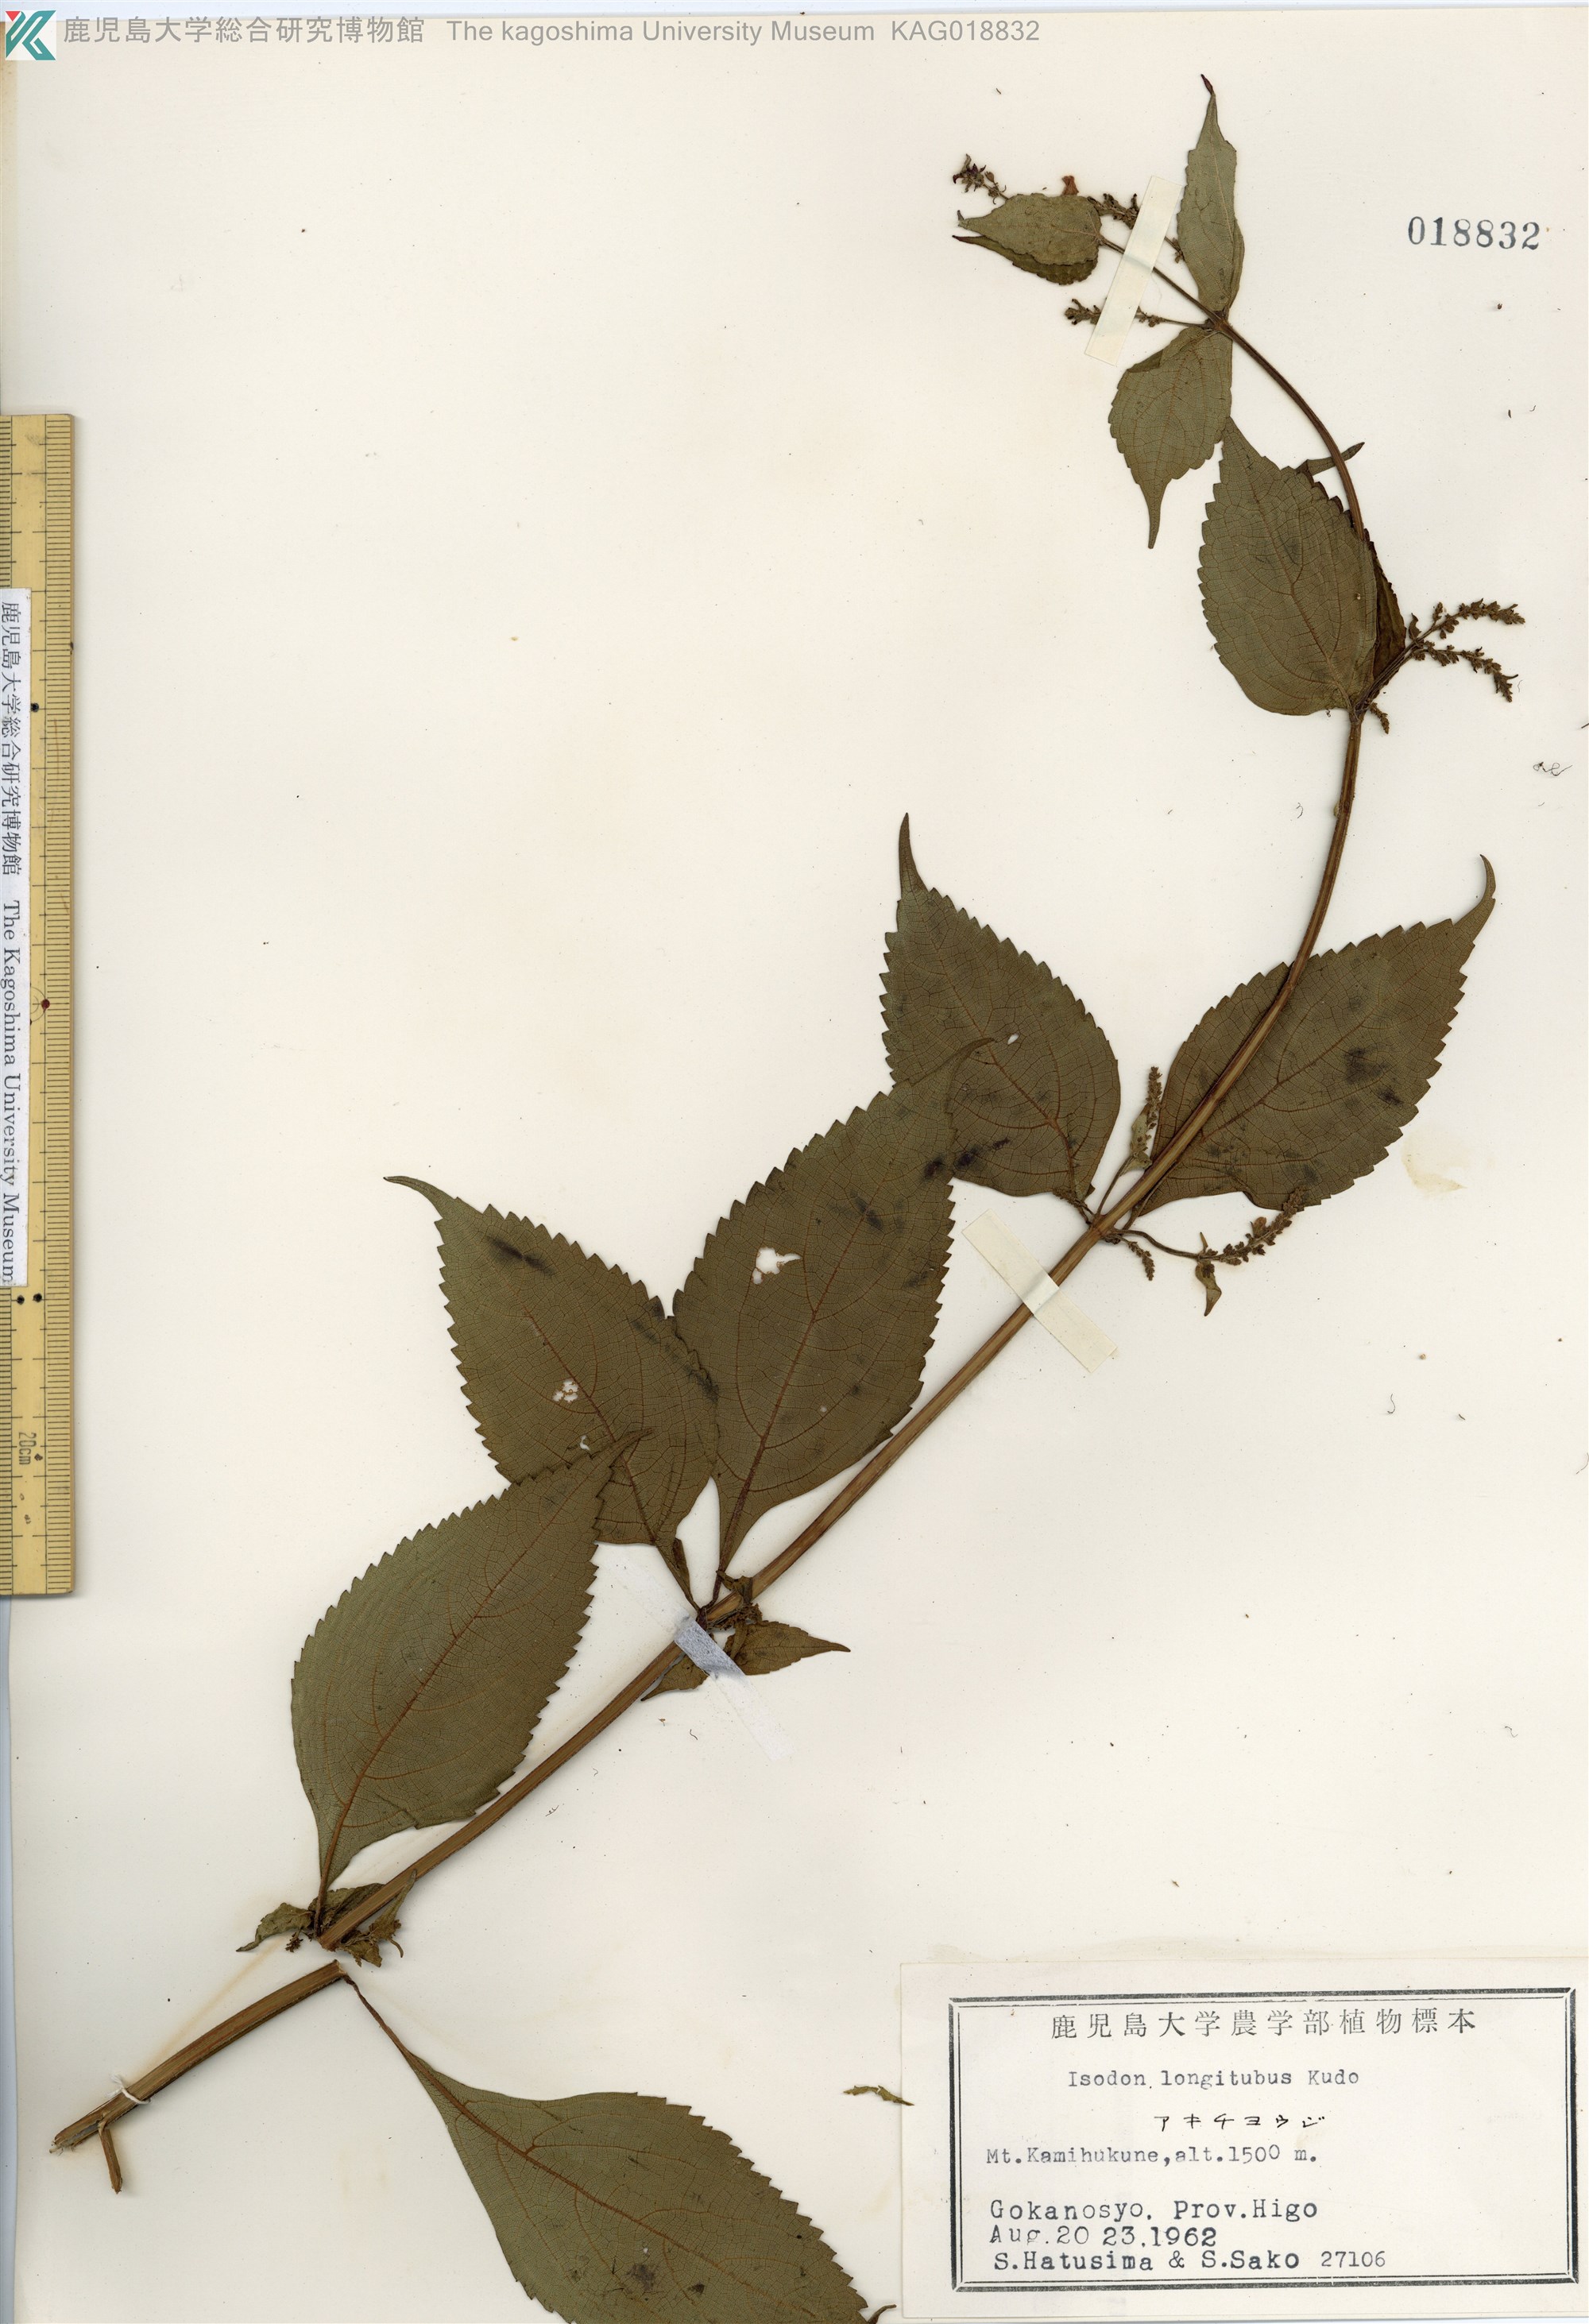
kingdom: Plantae
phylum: Tracheophyta
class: Magnoliopsida
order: Lamiales
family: Lamiaceae
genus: Isodon
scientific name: Isodon longitubus
